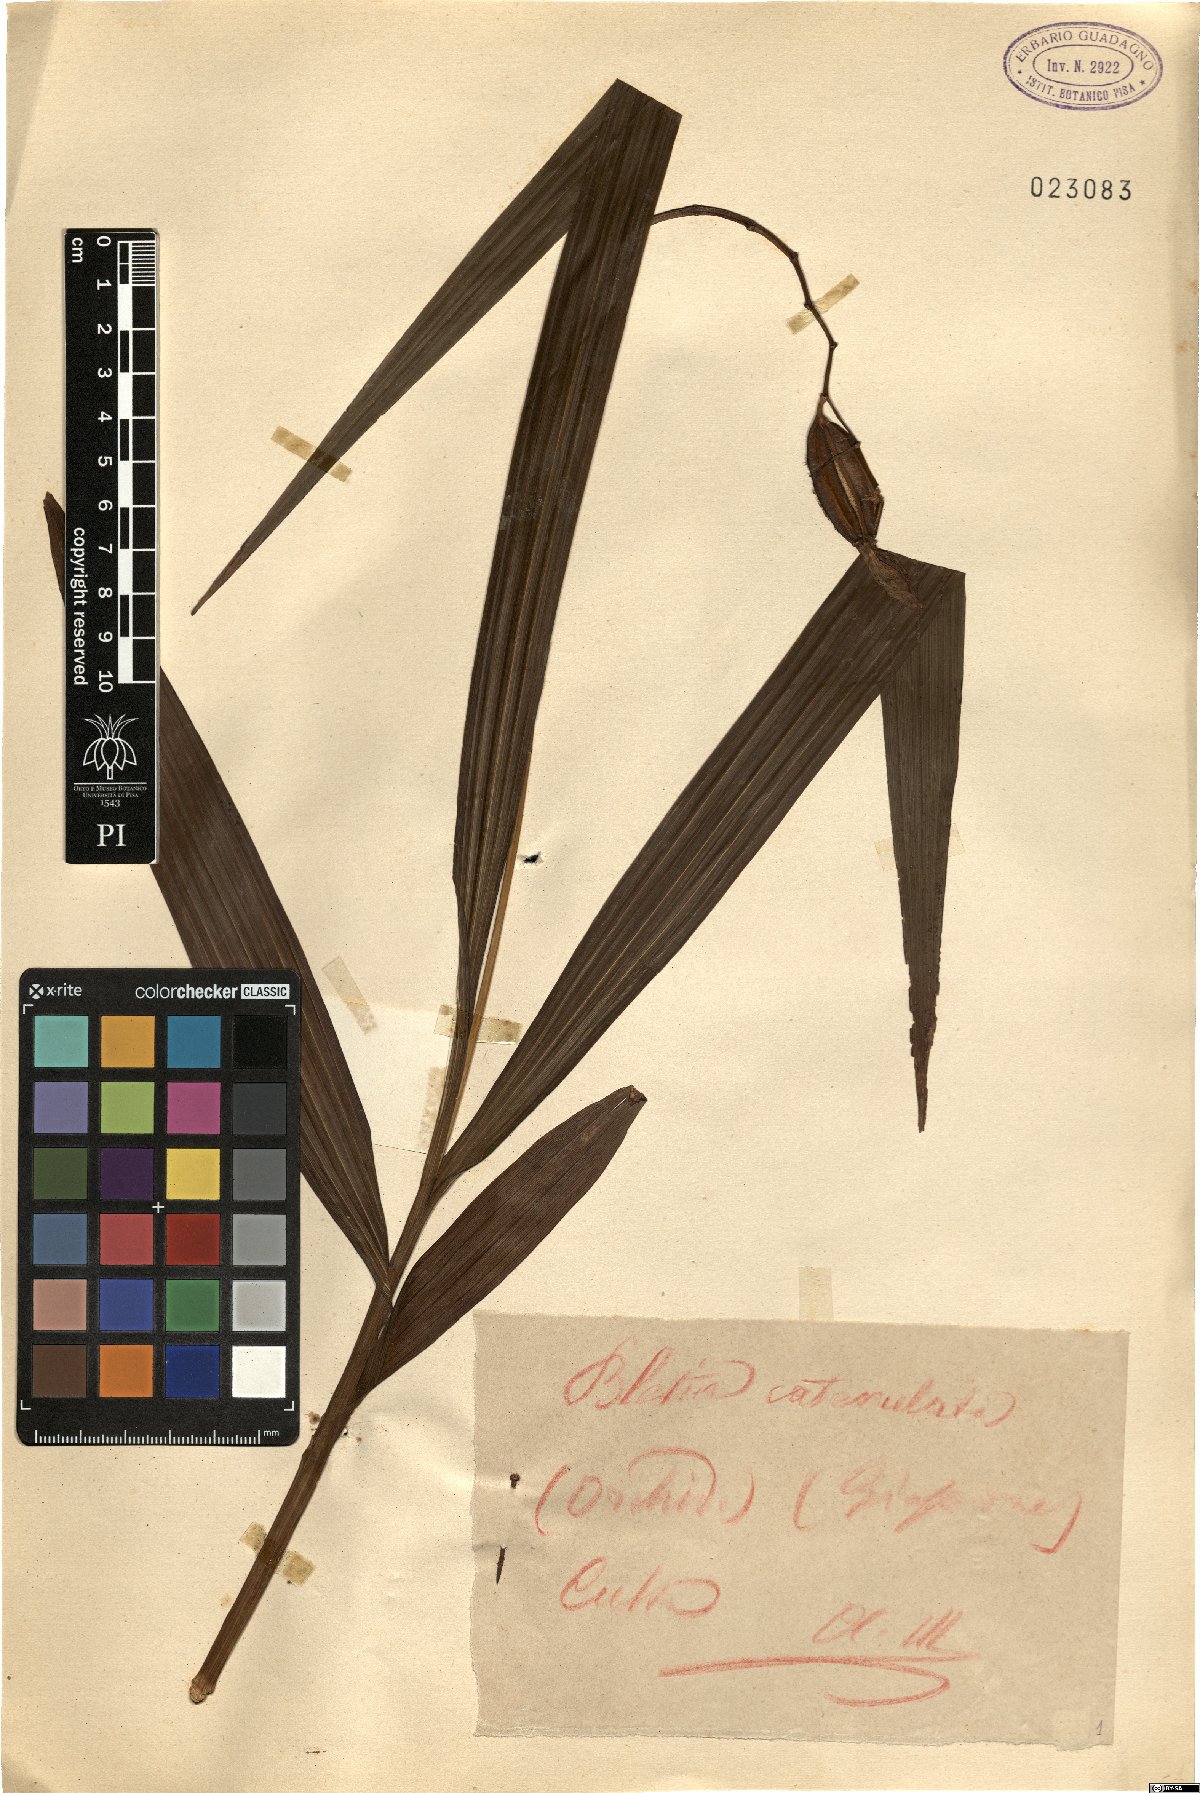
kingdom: Plantae
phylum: Tracheophyta
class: Liliopsida
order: Asparagales
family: Orchidaceae
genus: Bletia
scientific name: Bletia catenulata
